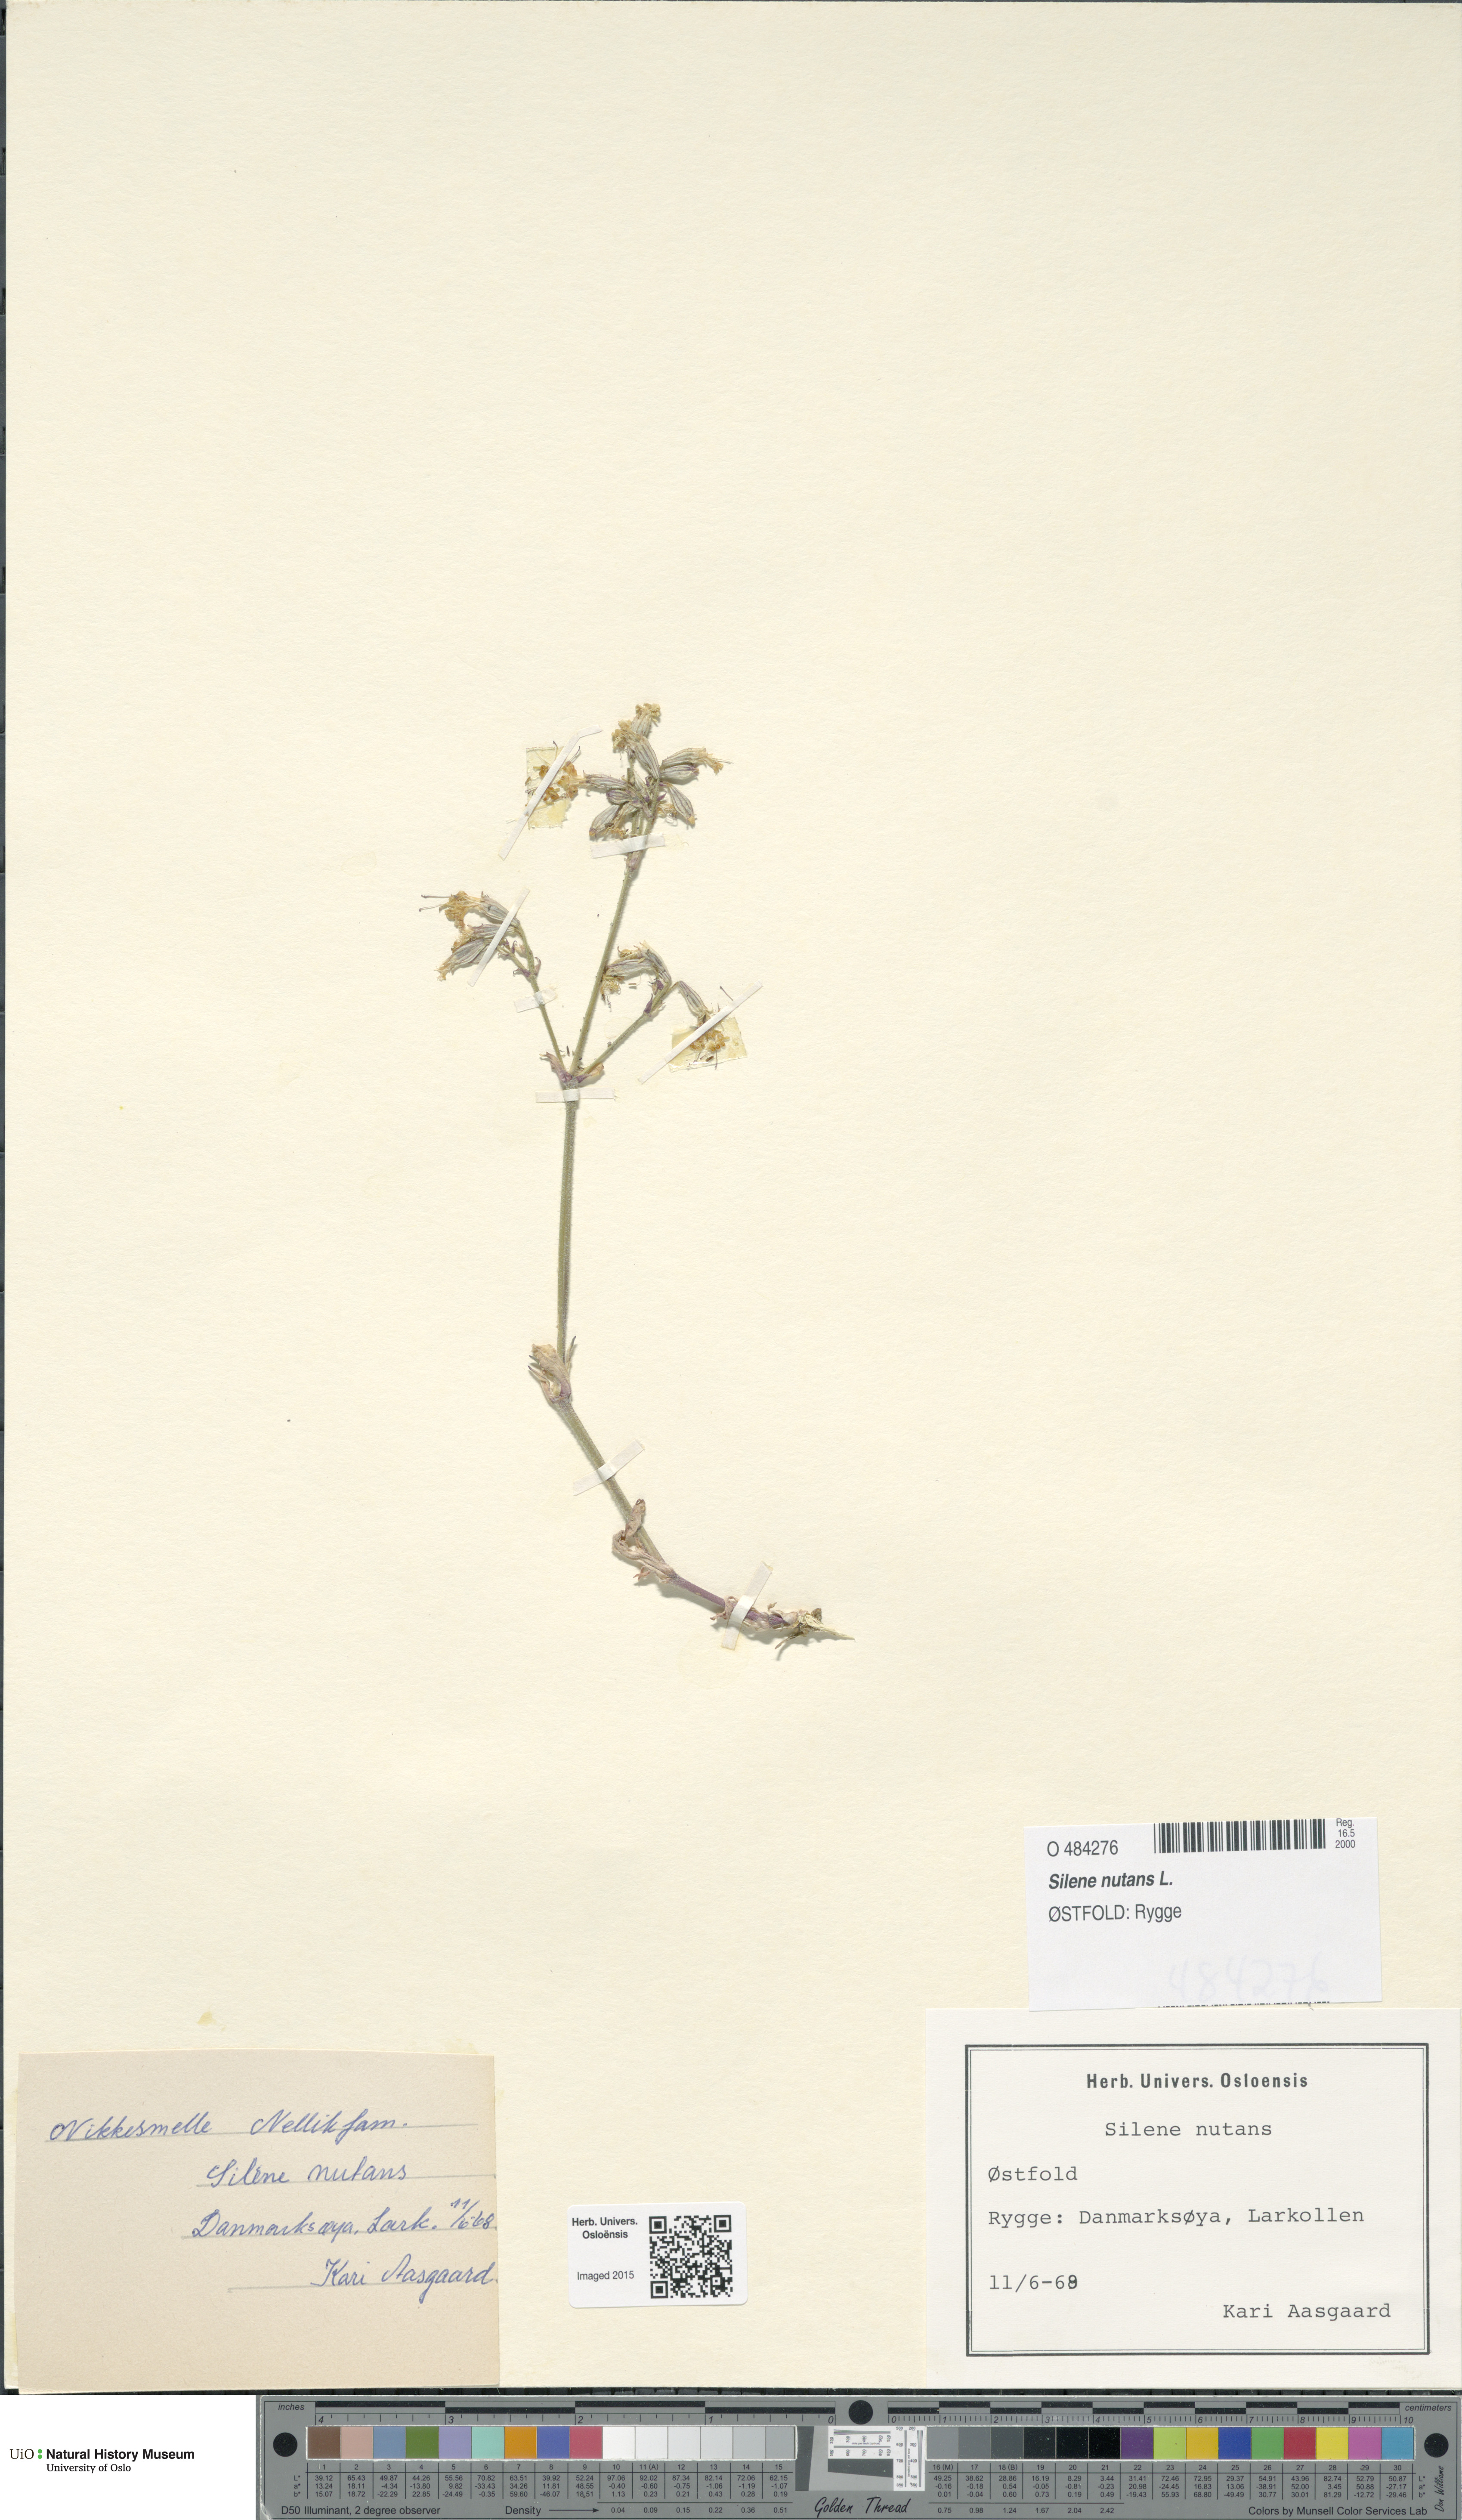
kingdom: Plantae
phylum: Tracheophyta
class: Magnoliopsida
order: Caryophyllales
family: Caryophyllaceae
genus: Silene
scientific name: Silene nutans
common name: Nottingham catchfly
